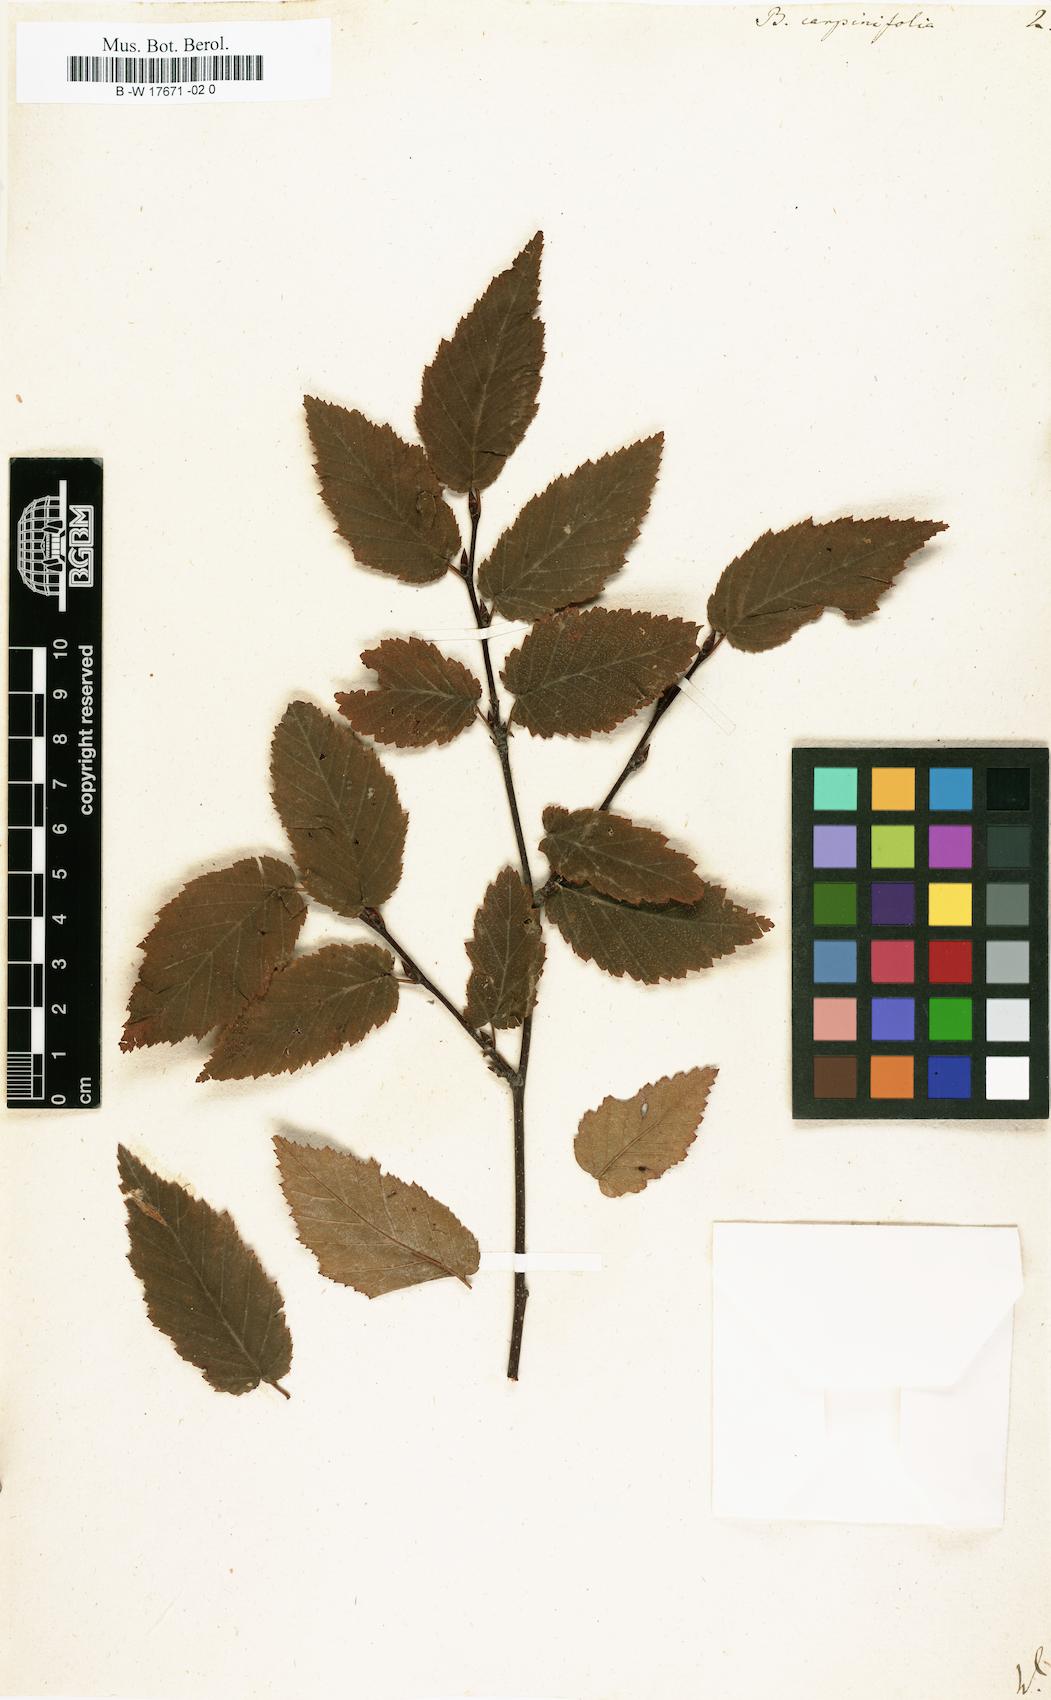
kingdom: Plantae
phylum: Tracheophyta
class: Magnoliopsida
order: Fagales
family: Betulaceae
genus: Betula
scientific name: Betula lenta
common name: Black birch
